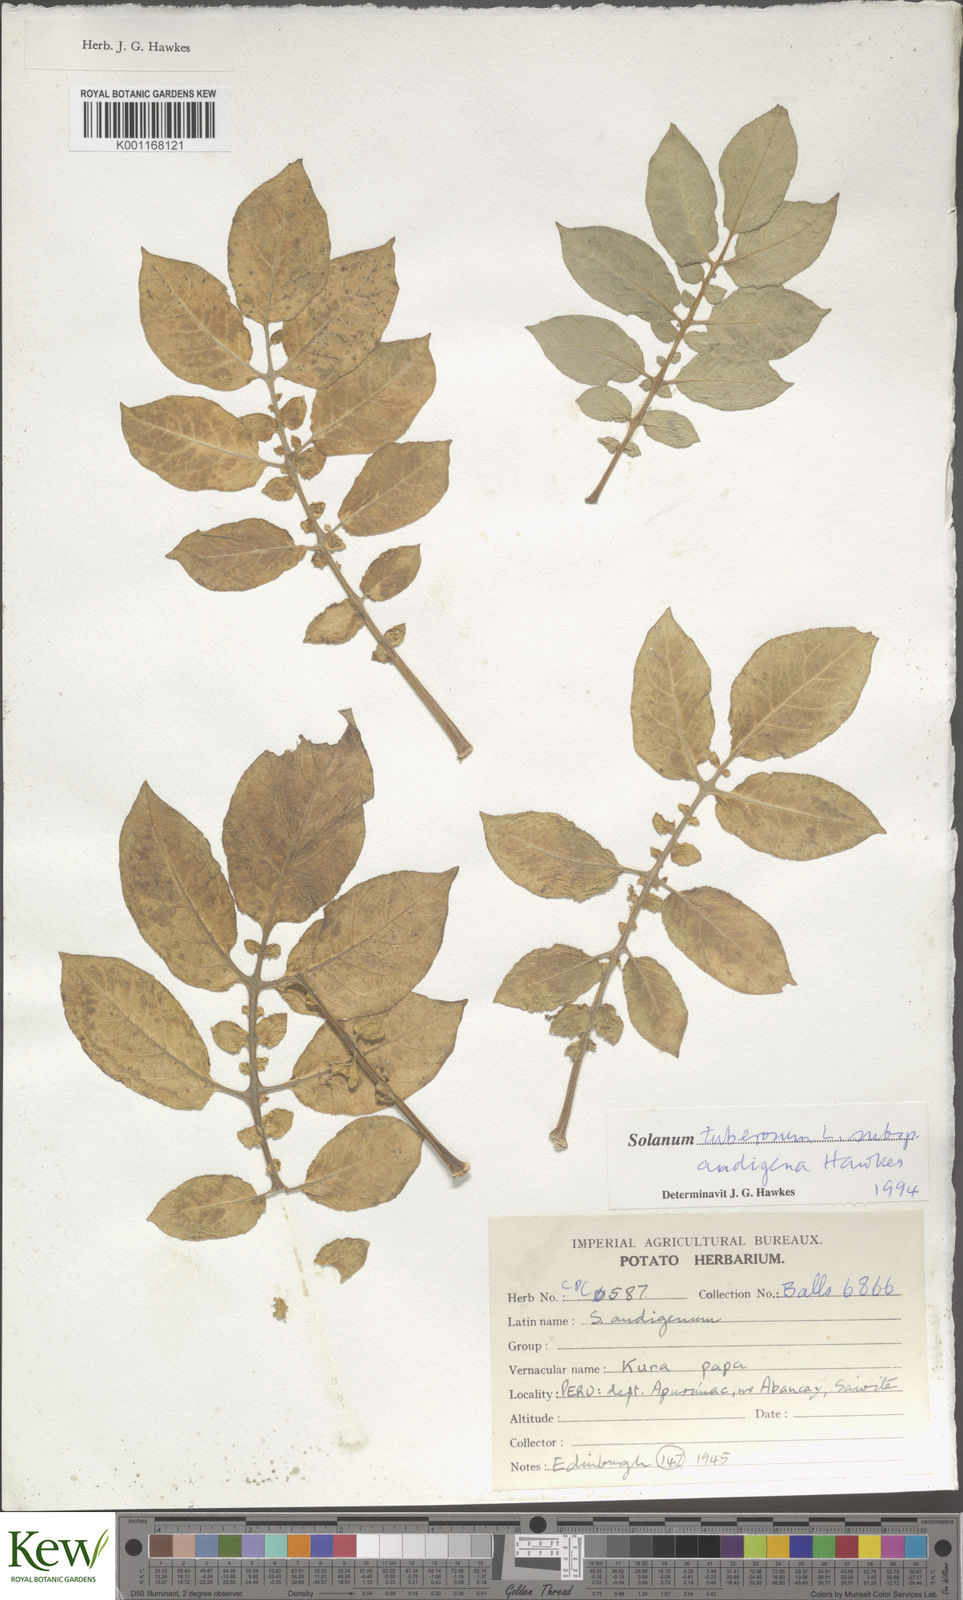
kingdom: Plantae
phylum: Tracheophyta
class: Magnoliopsida
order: Solanales
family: Solanaceae
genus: Solanum
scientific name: Solanum tuberosum
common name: Potato
